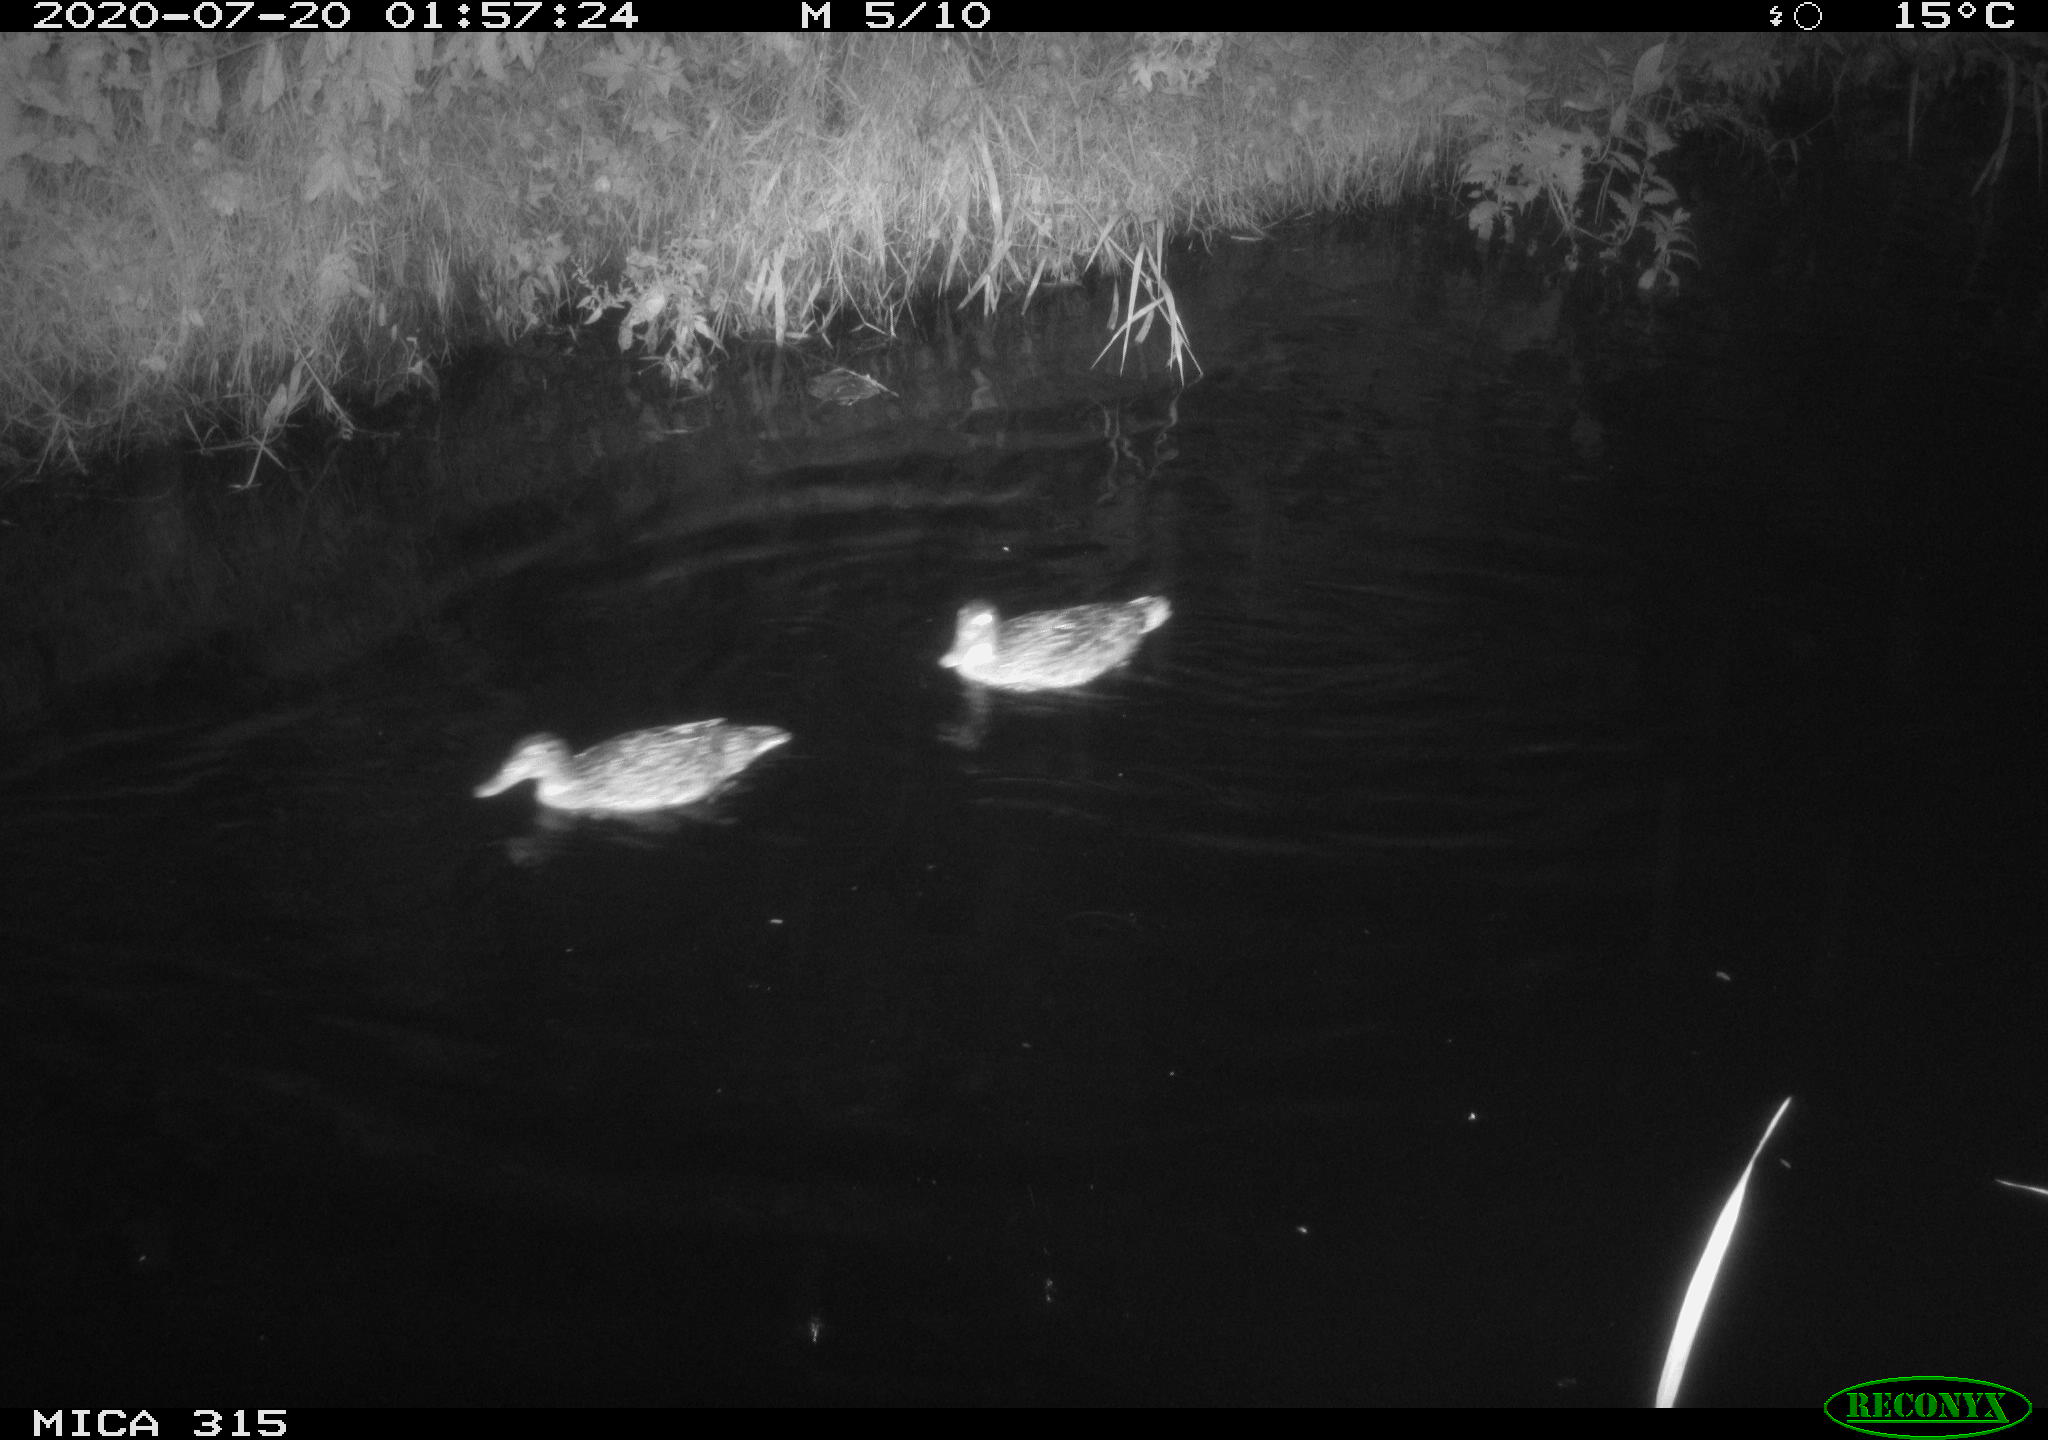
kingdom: Animalia
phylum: Chordata
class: Aves
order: Anseriformes
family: Anatidae
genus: Anas
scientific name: Anas platyrhynchos
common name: Mallard
